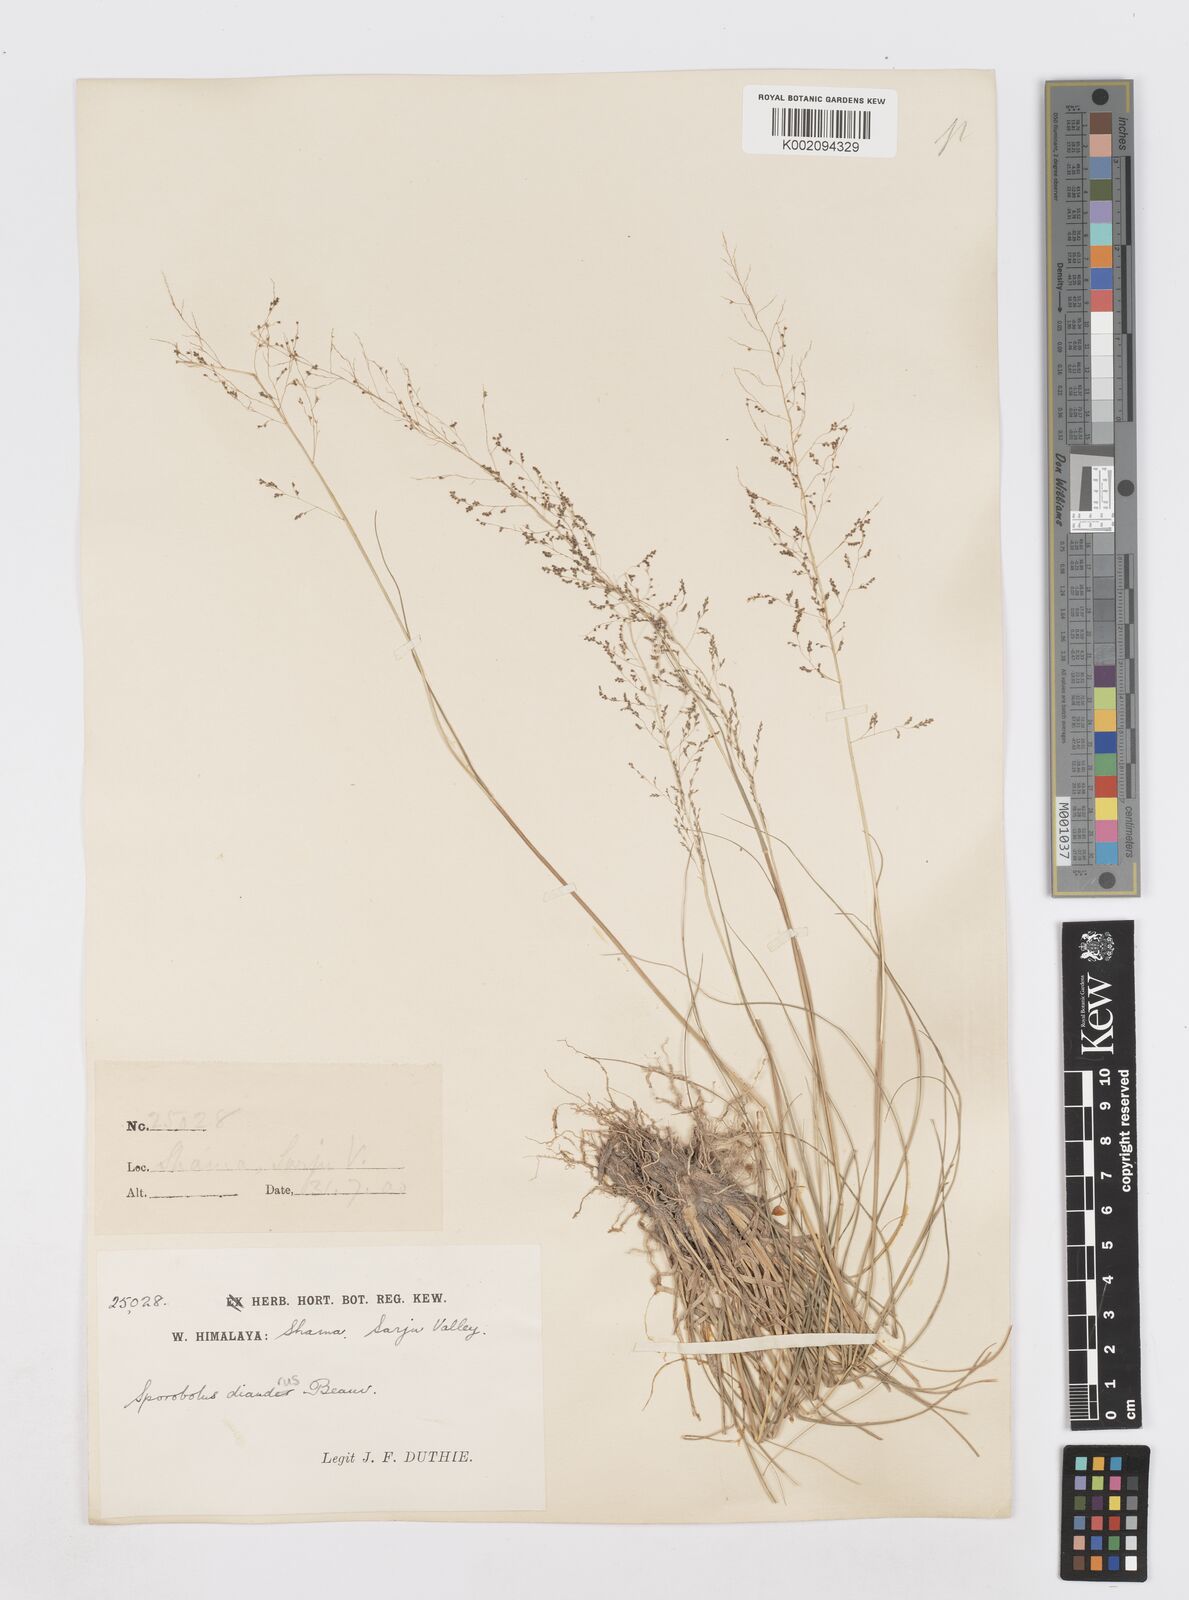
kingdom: Plantae
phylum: Tracheophyta
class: Liliopsida
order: Poales
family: Poaceae
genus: Sporobolus
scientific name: Sporobolus diandrus
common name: Tussock dropseed
